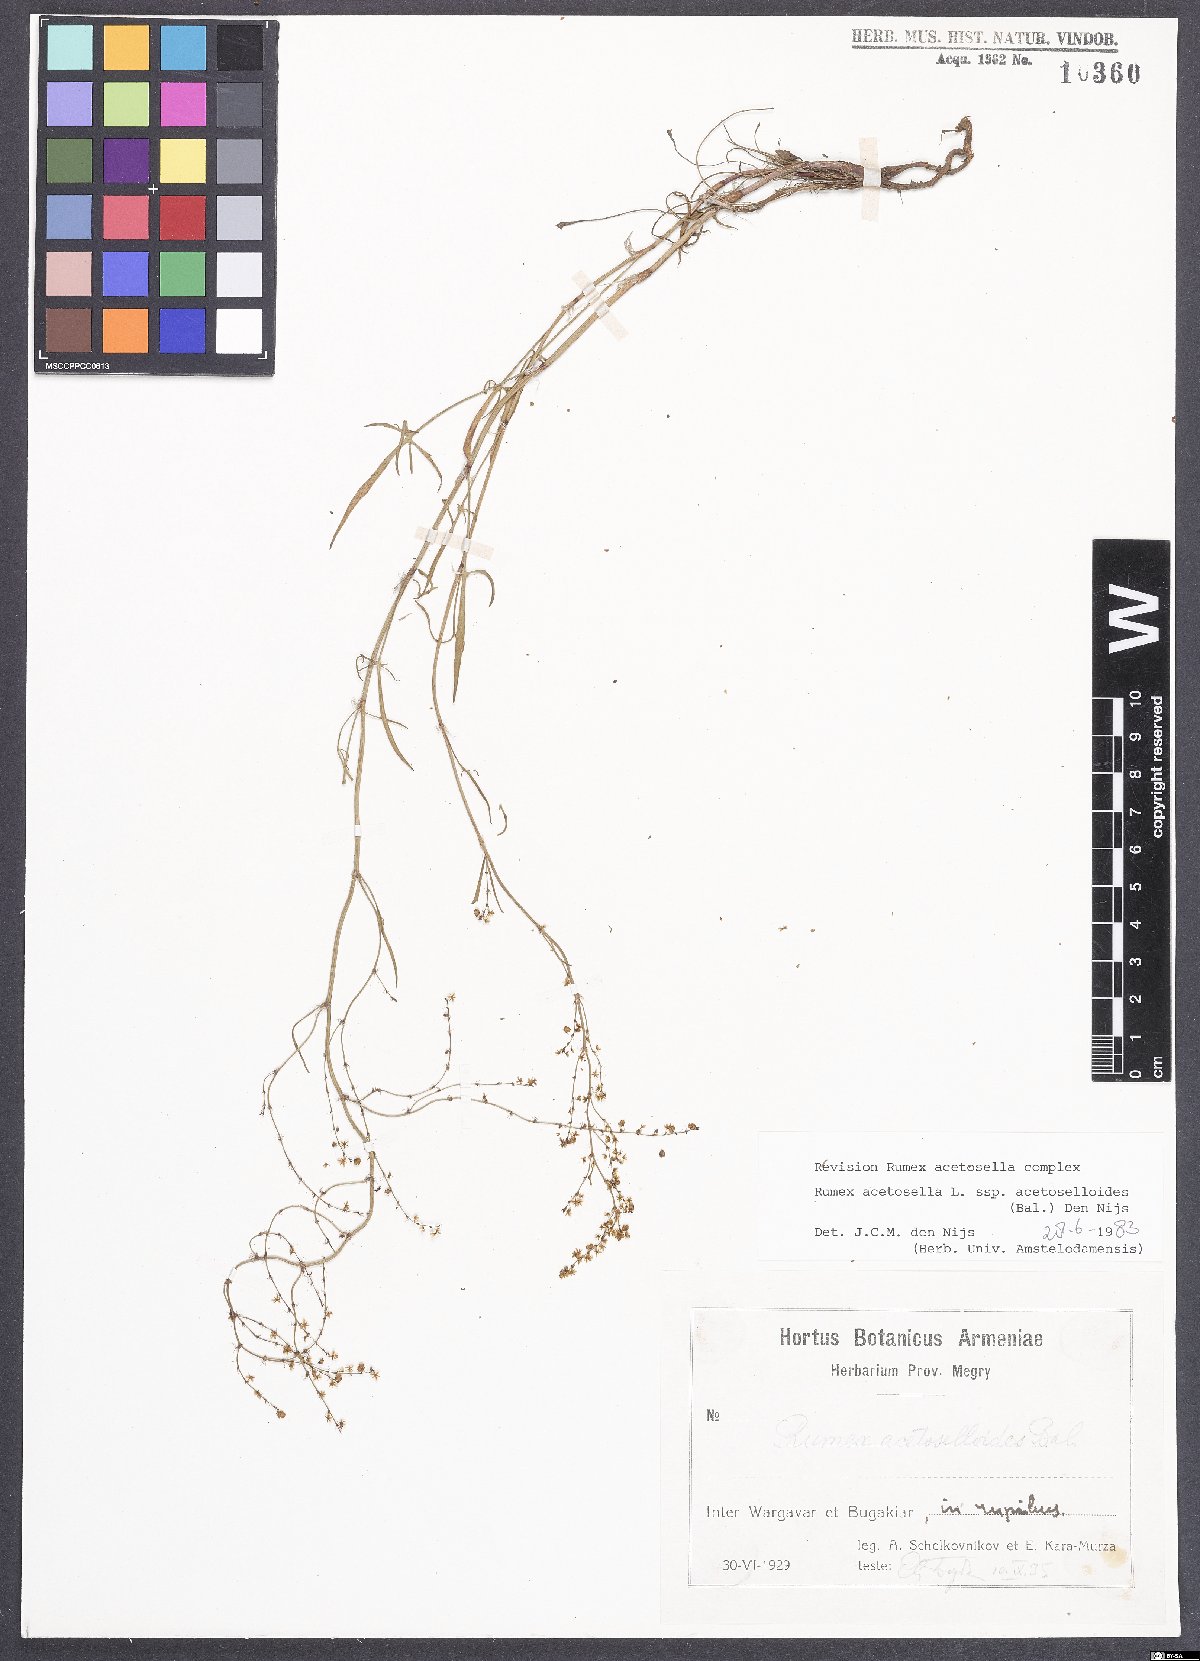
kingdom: Plantae
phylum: Tracheophyta
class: Magnoliopsida
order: Caryophyllales
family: Polygonaceae
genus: Rumex
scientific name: Rumex acetosella
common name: Common sheep sorrel
